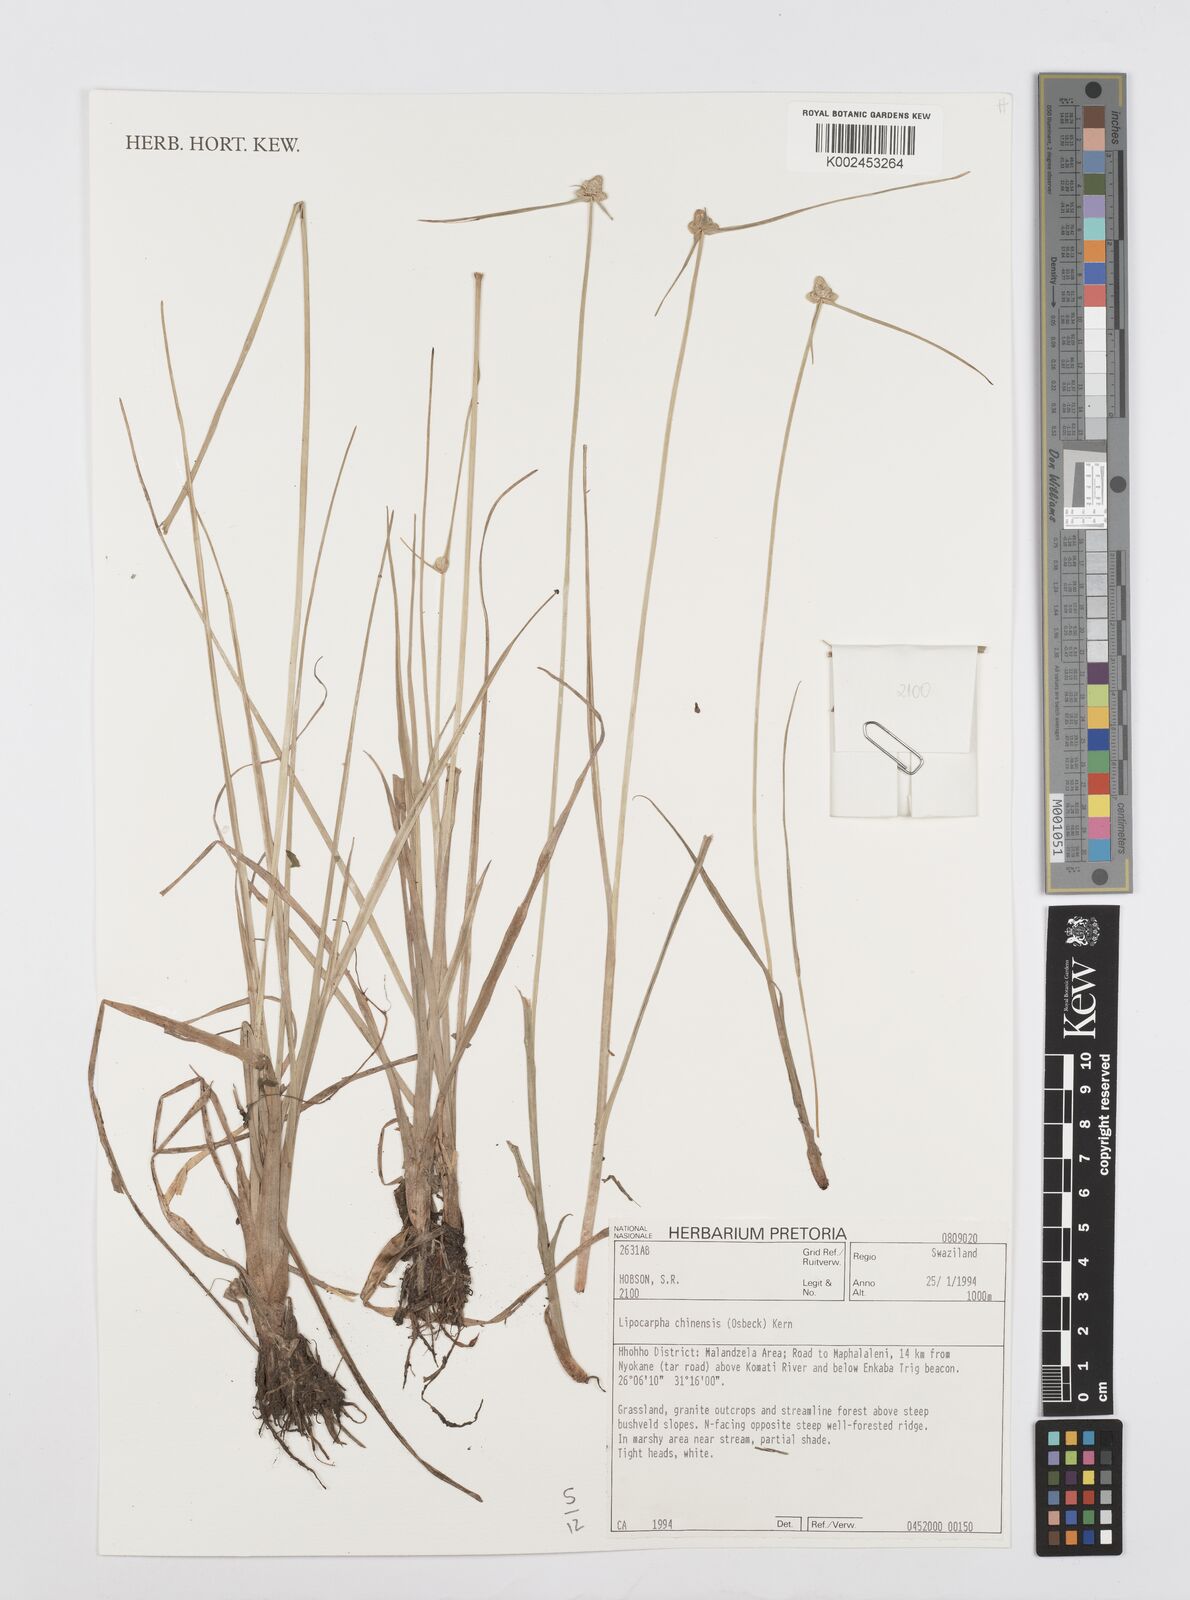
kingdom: Plantae
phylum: Tracheophyta
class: Liliopsida
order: Poales
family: Cyperaceae
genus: Cyperus
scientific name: Cyperus albescens
